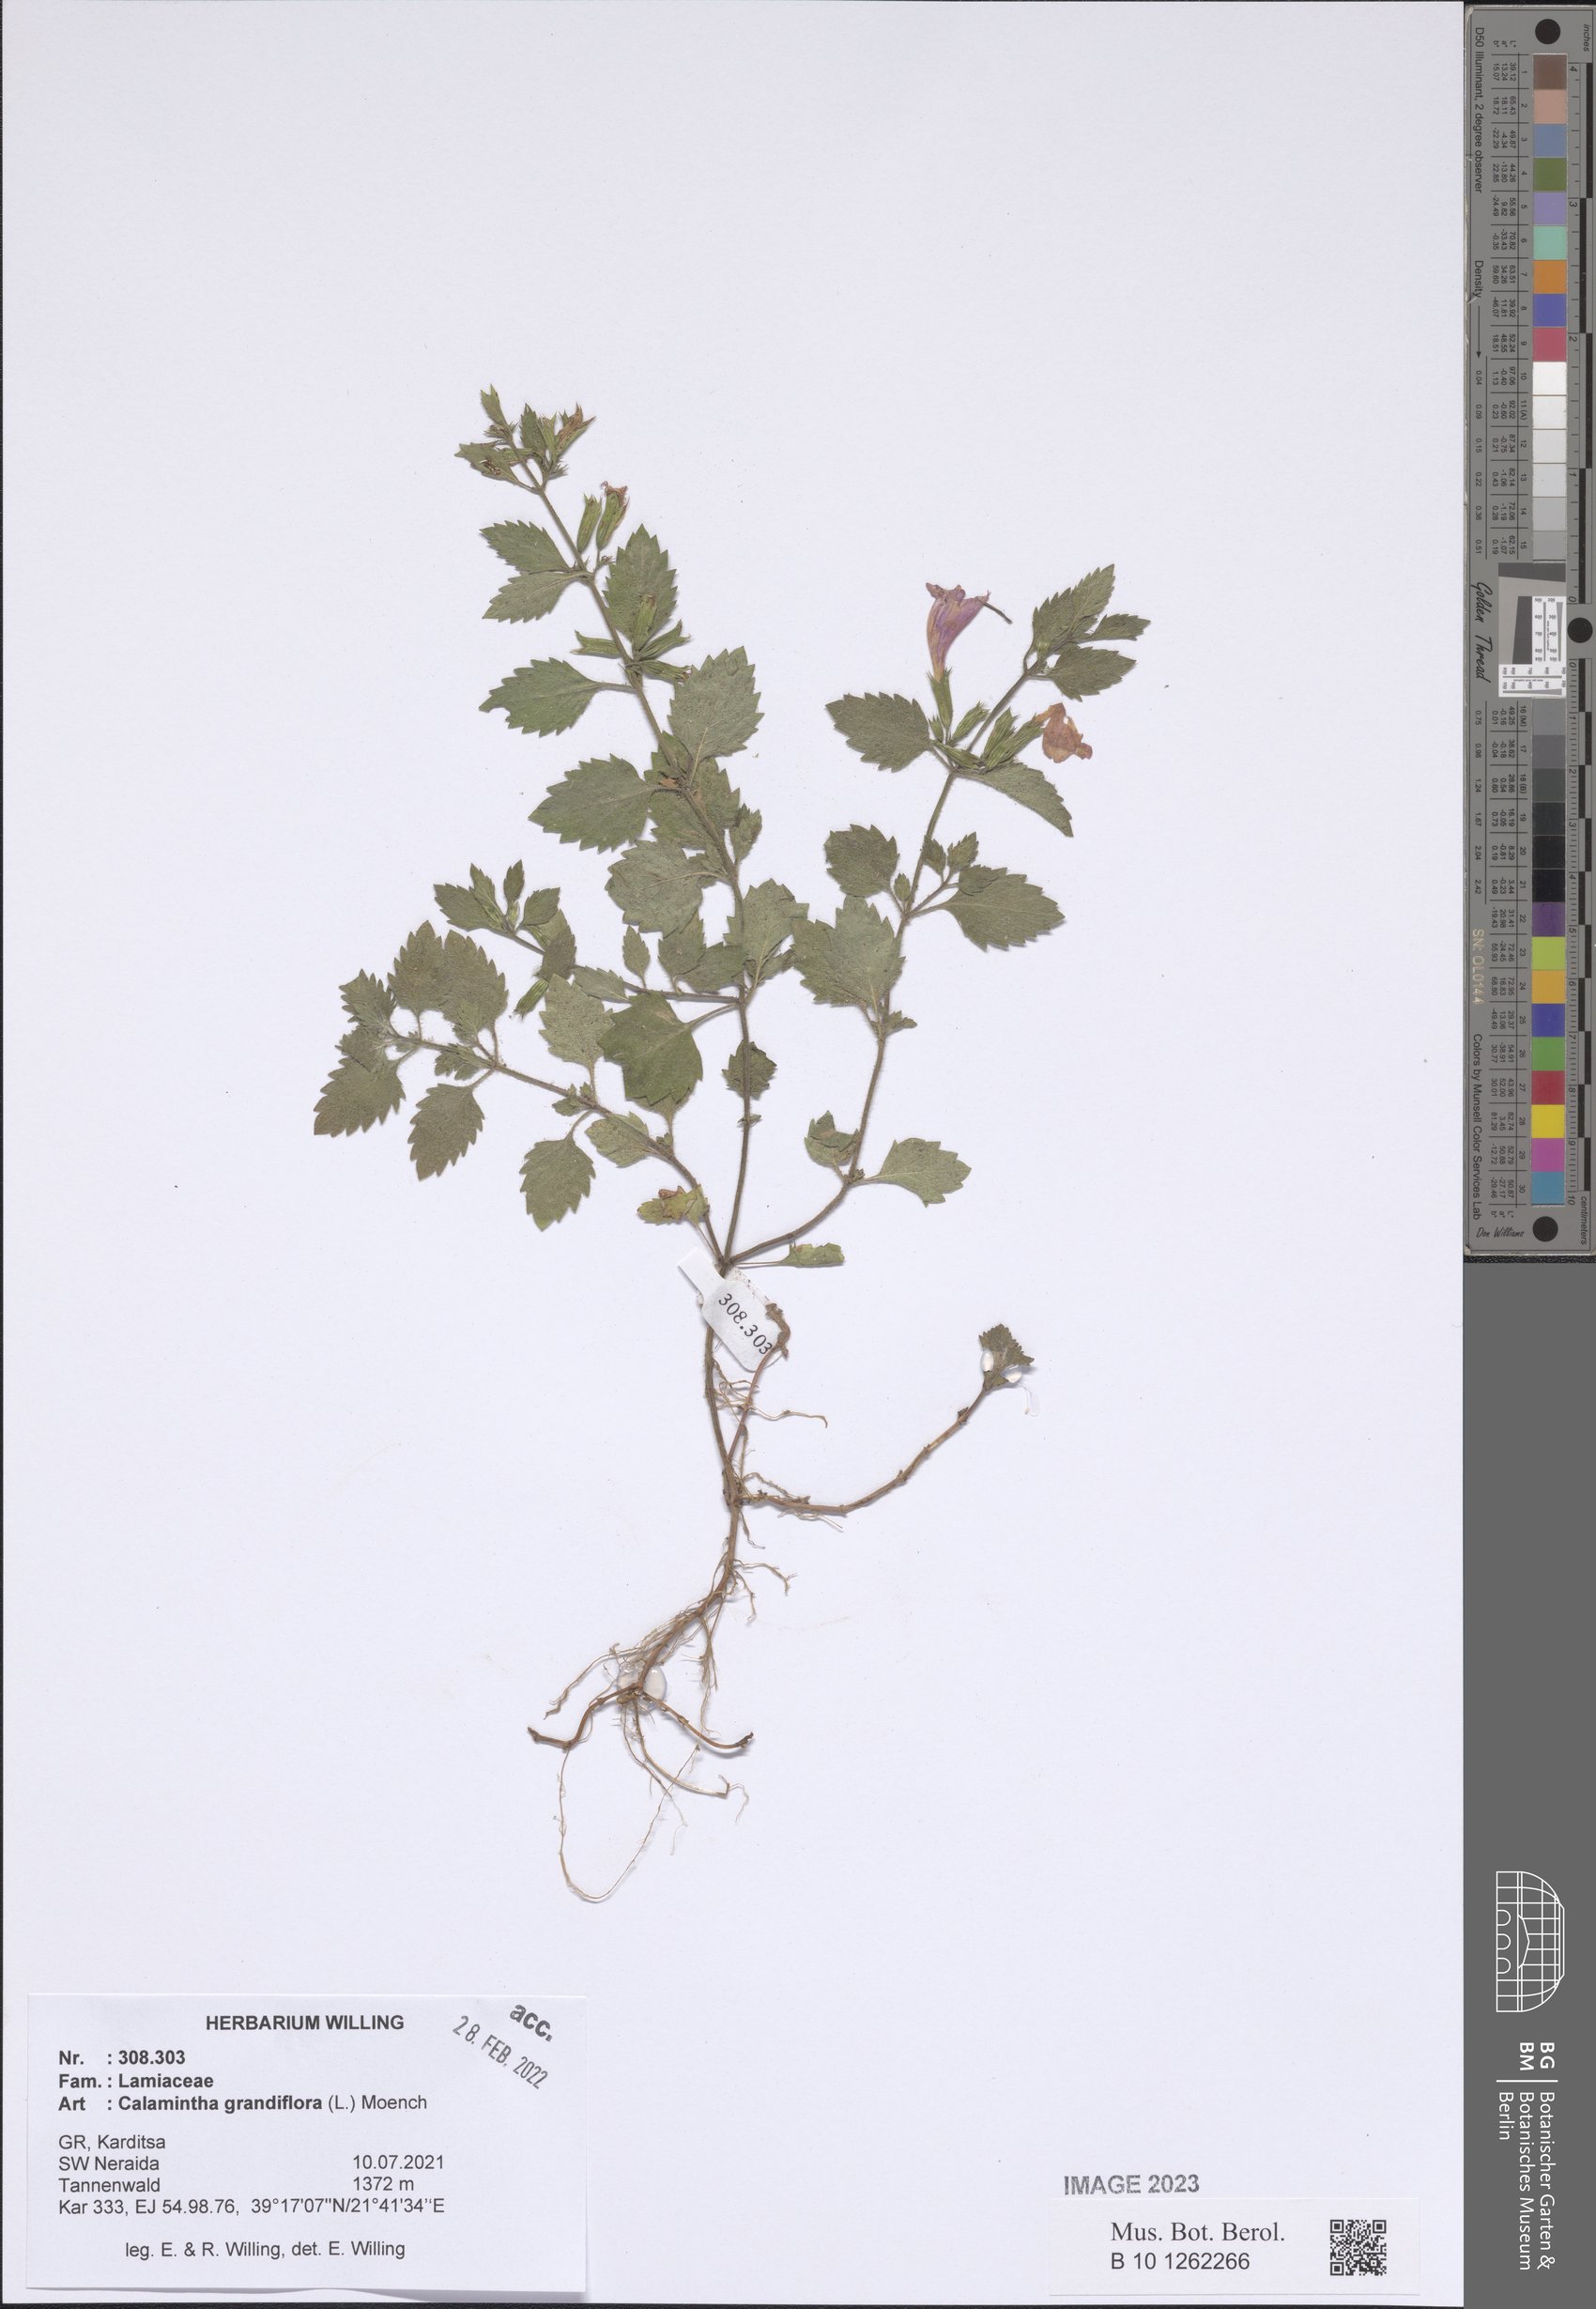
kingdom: Plantae
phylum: Tracheophyta
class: Magnoliopsida
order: Lamiales
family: Lamiaceae
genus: Clinopodium
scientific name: Clinopodium grandiflorum
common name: Greater calamint
